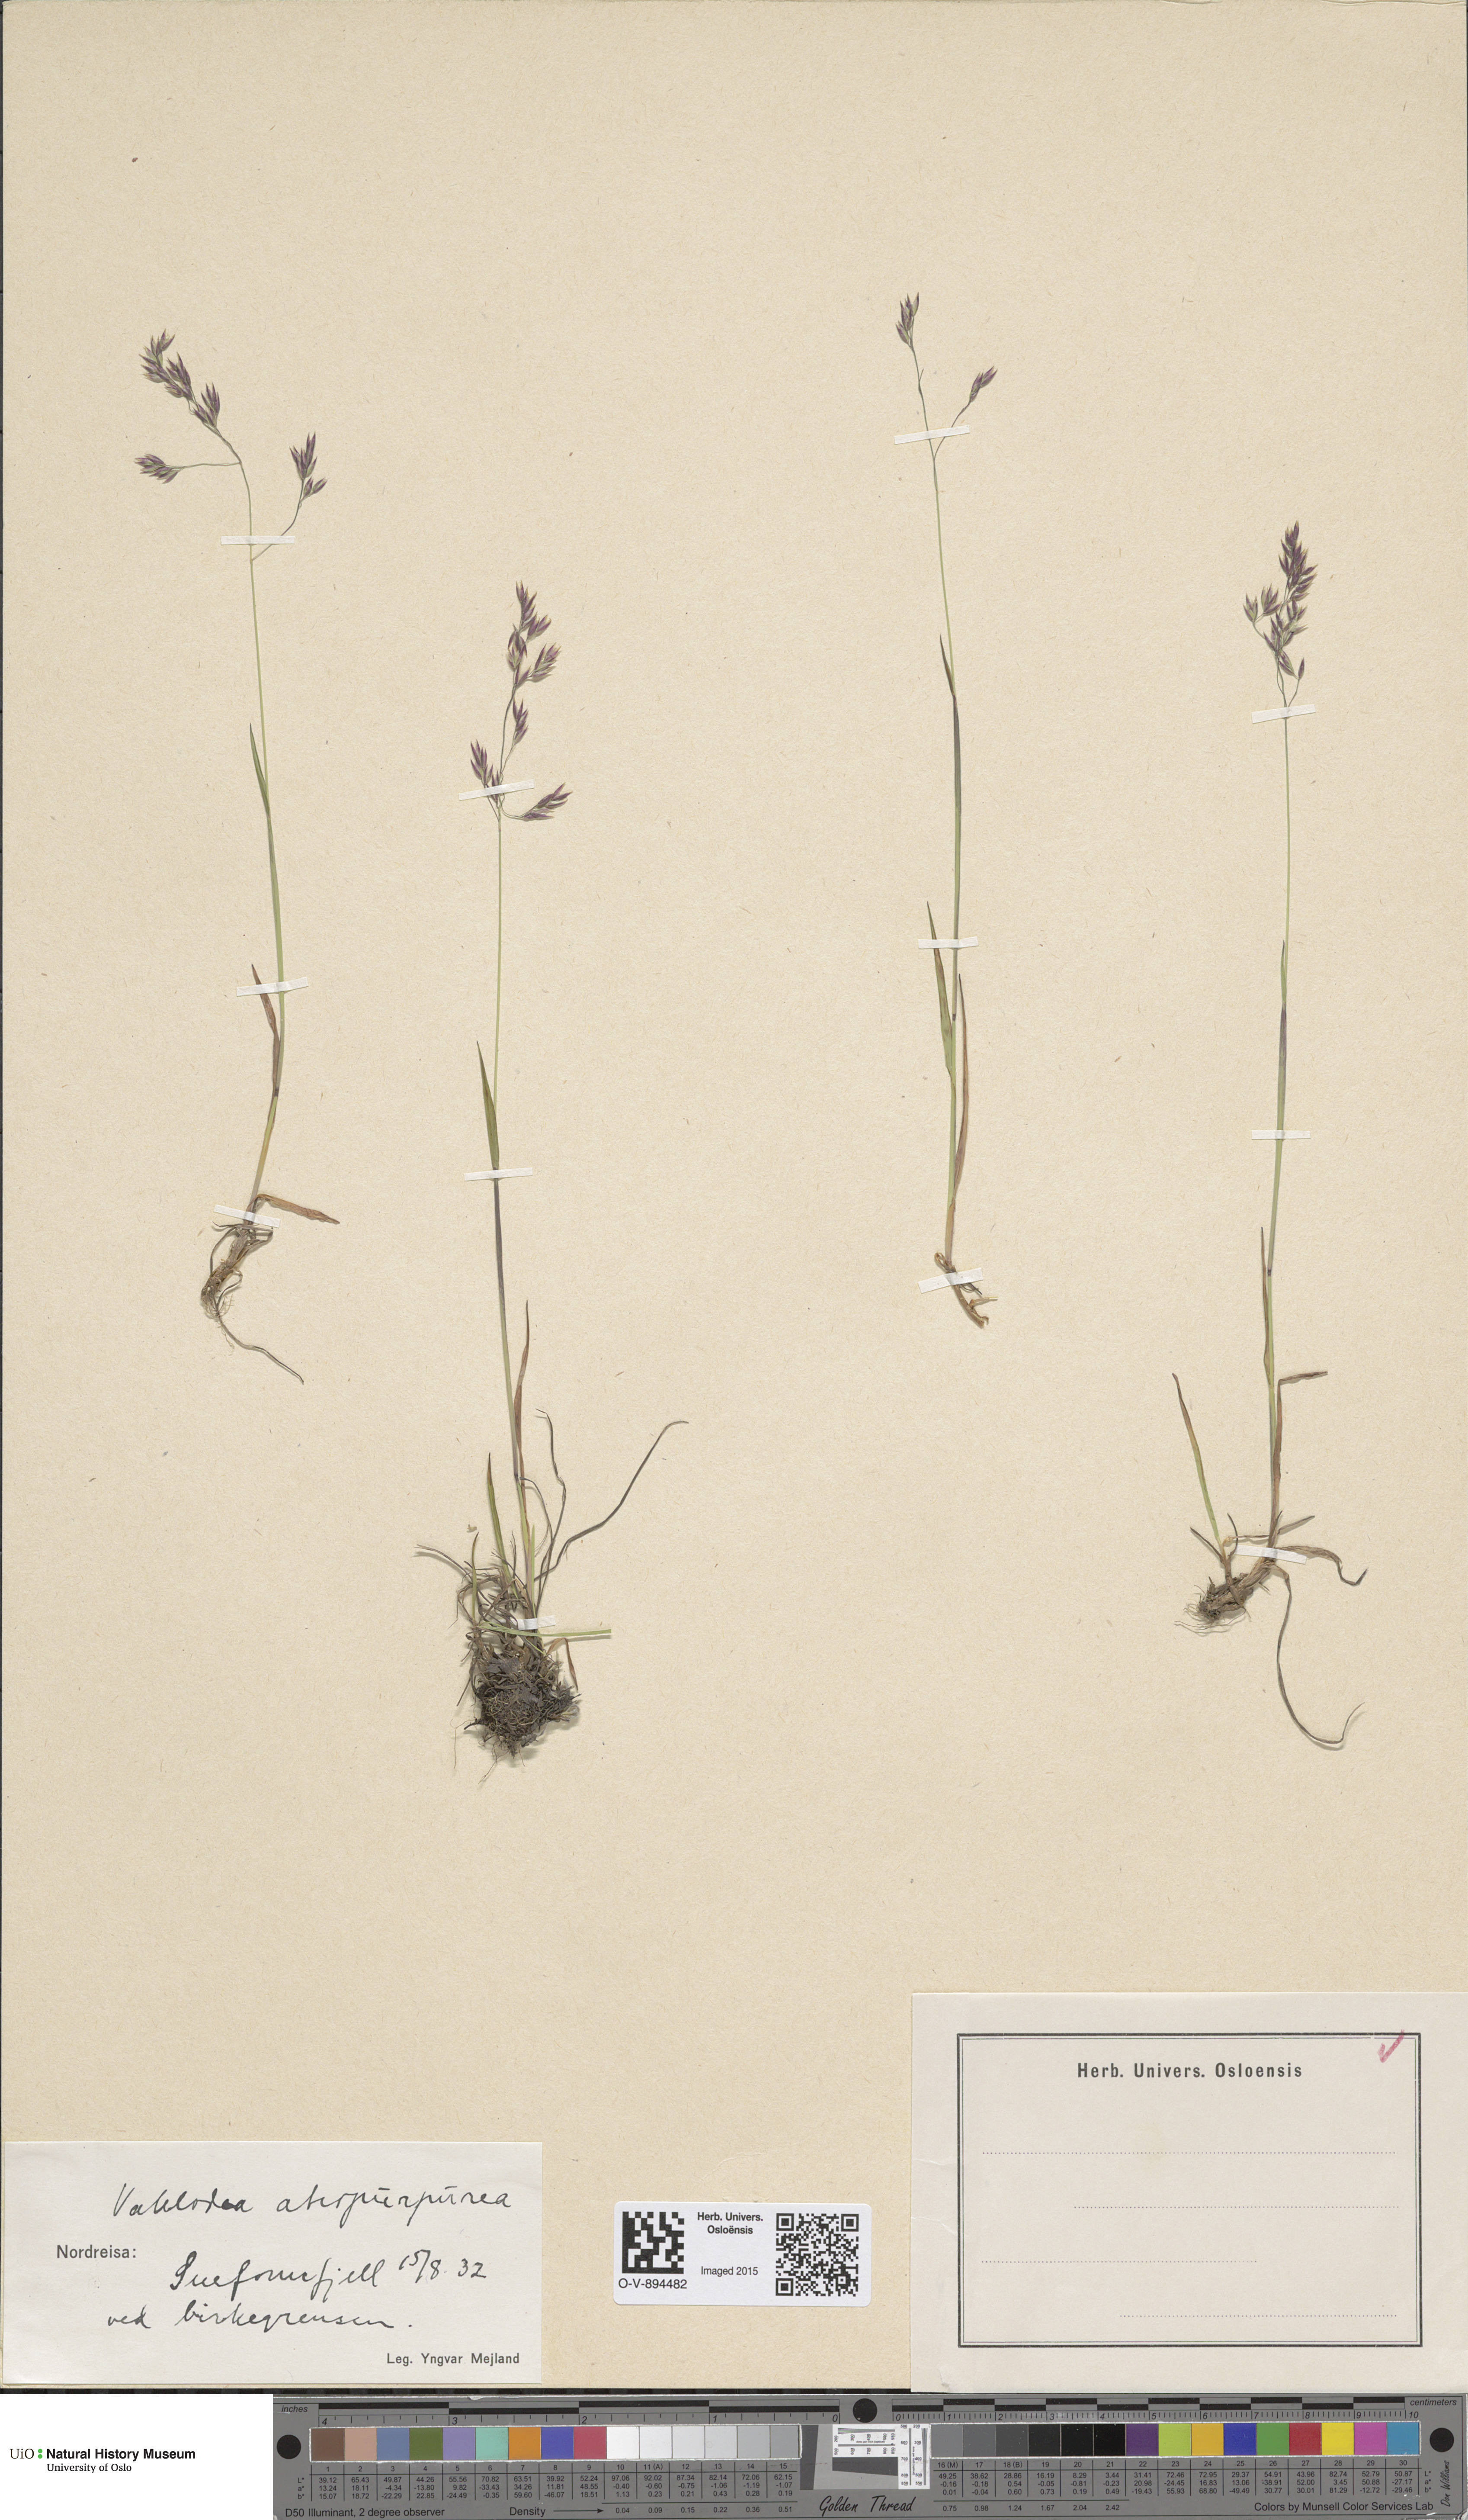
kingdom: Plantae
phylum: Tracheophyta
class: Liliopsida
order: Poales
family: Poaceae
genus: Vahlodea
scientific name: Vahlodea atropurpurea
